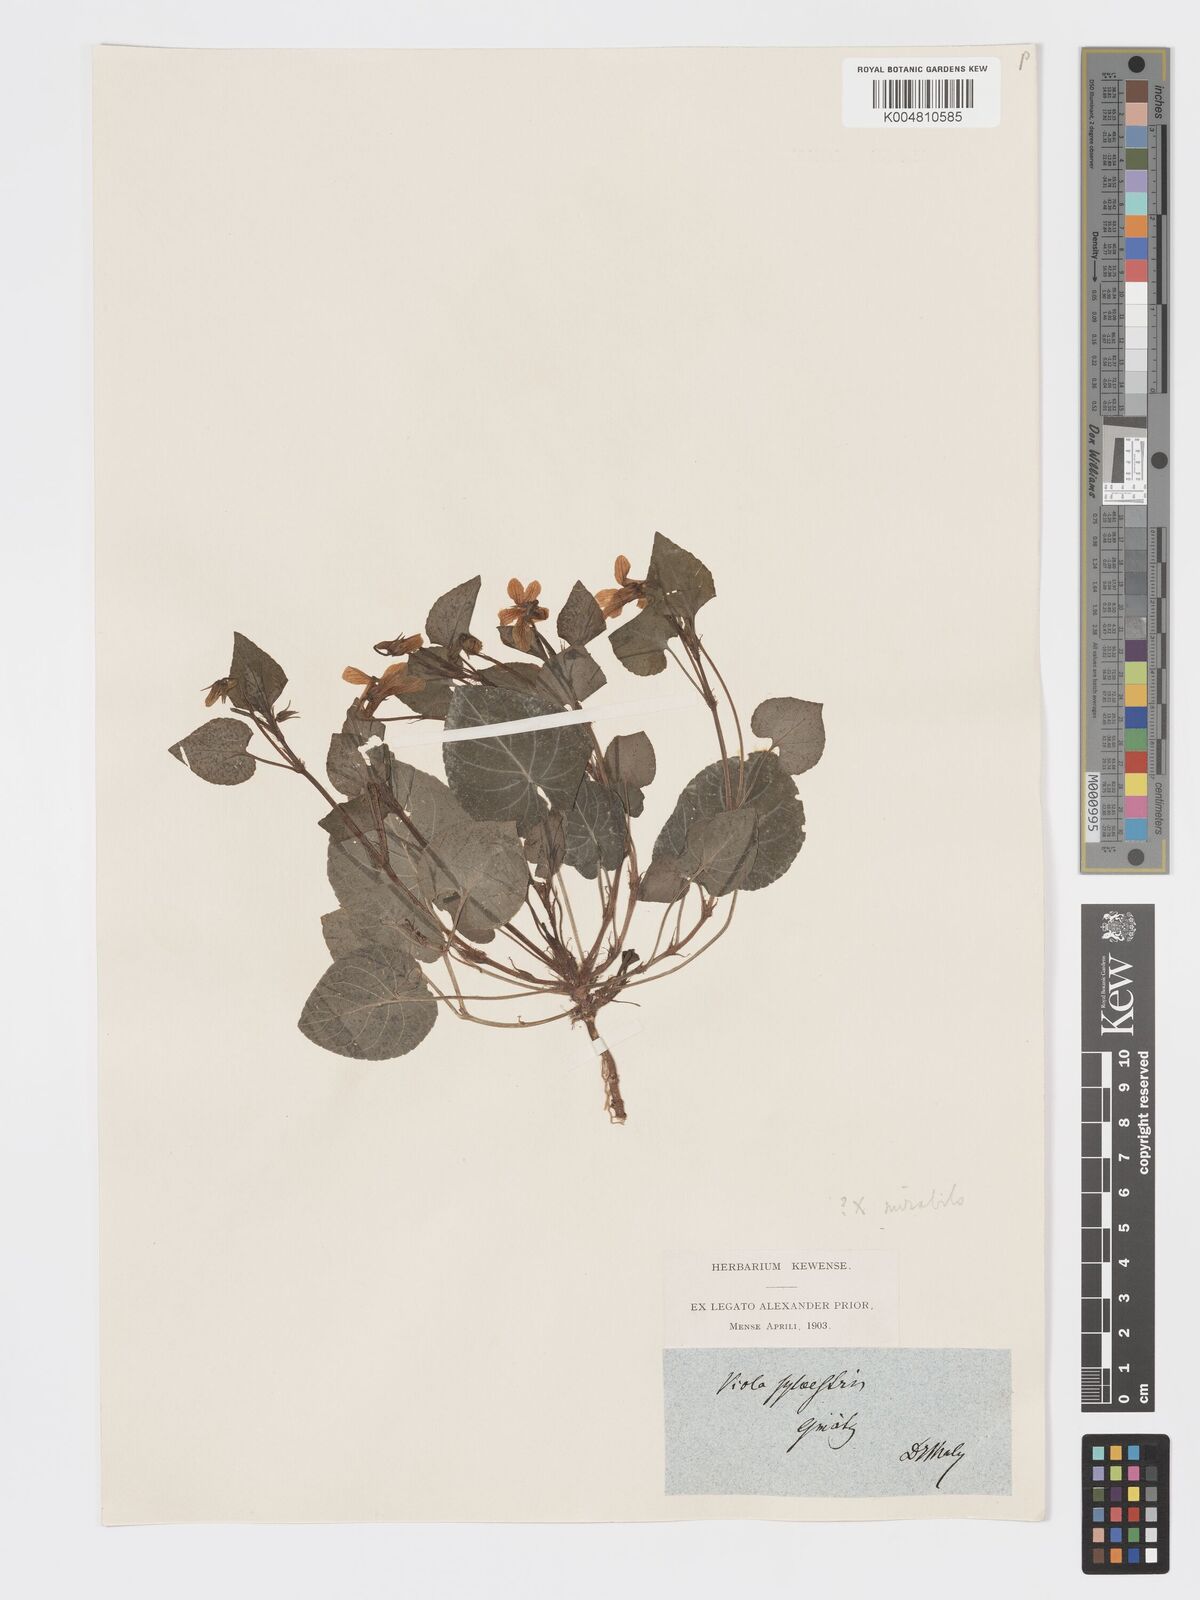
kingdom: Plantae
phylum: Tracheophyta
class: Magnoliopsida
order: Malpighiales
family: Violaceae
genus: Viola
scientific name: Viola mirabilis
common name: Wonder violet
